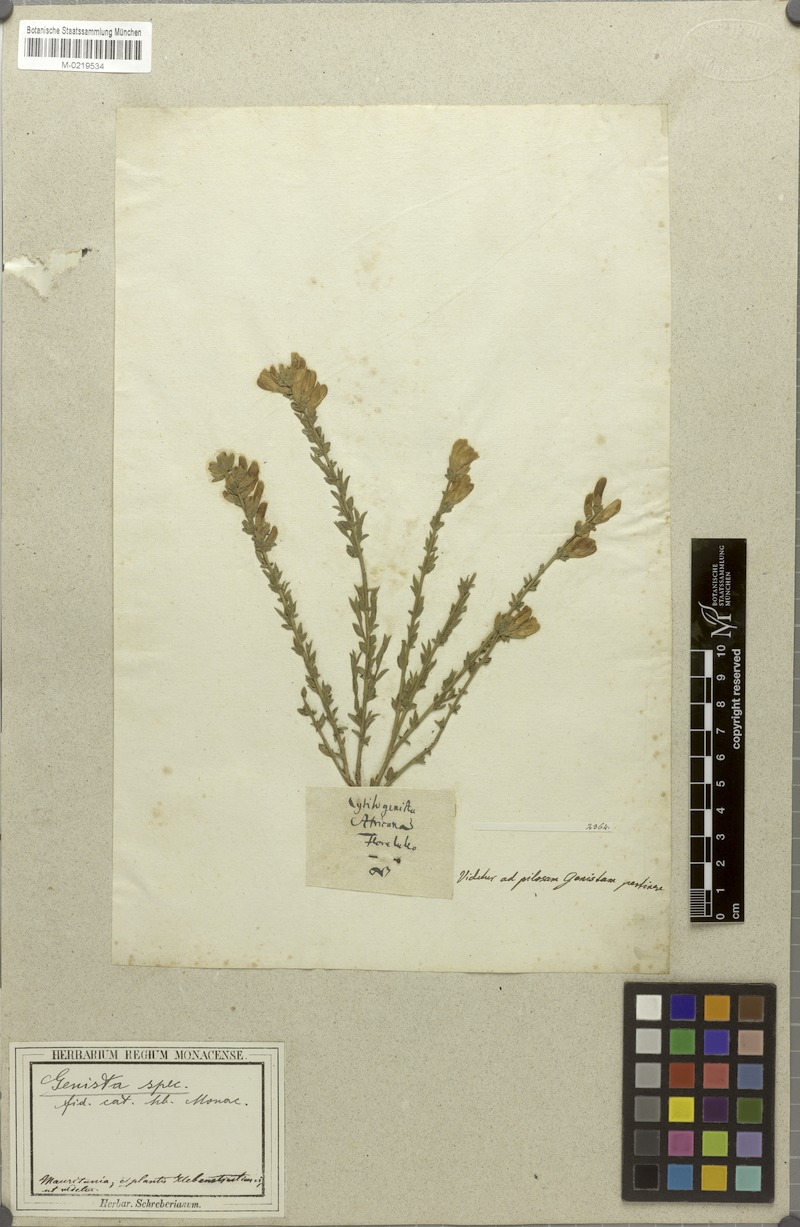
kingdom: Plantae
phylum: Tracheophyta
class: Magnoliopsida
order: Fabales
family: Fabaceae
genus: Genista
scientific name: Genista
